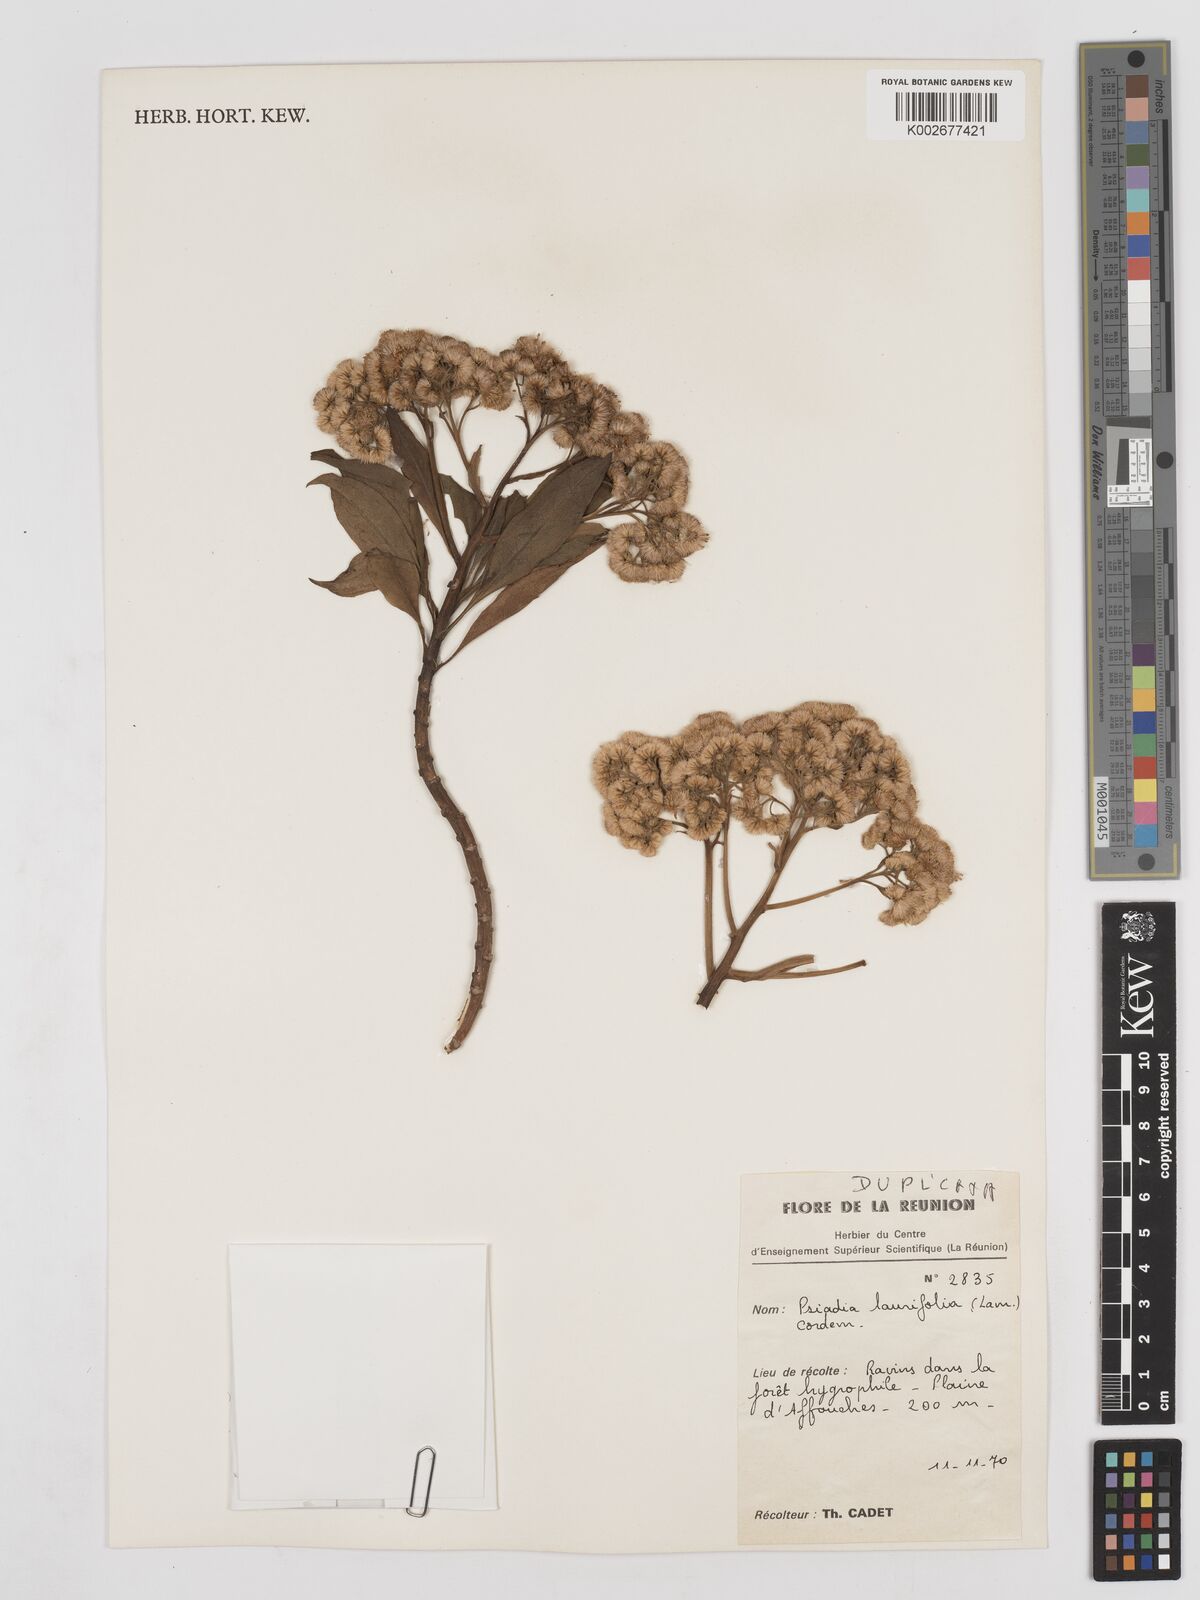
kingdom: Plantae
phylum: Tracheophyta
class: Magnoliopsida
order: Asterales
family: Asteraceae
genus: Psiadia
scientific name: Psiadia laurifolia
